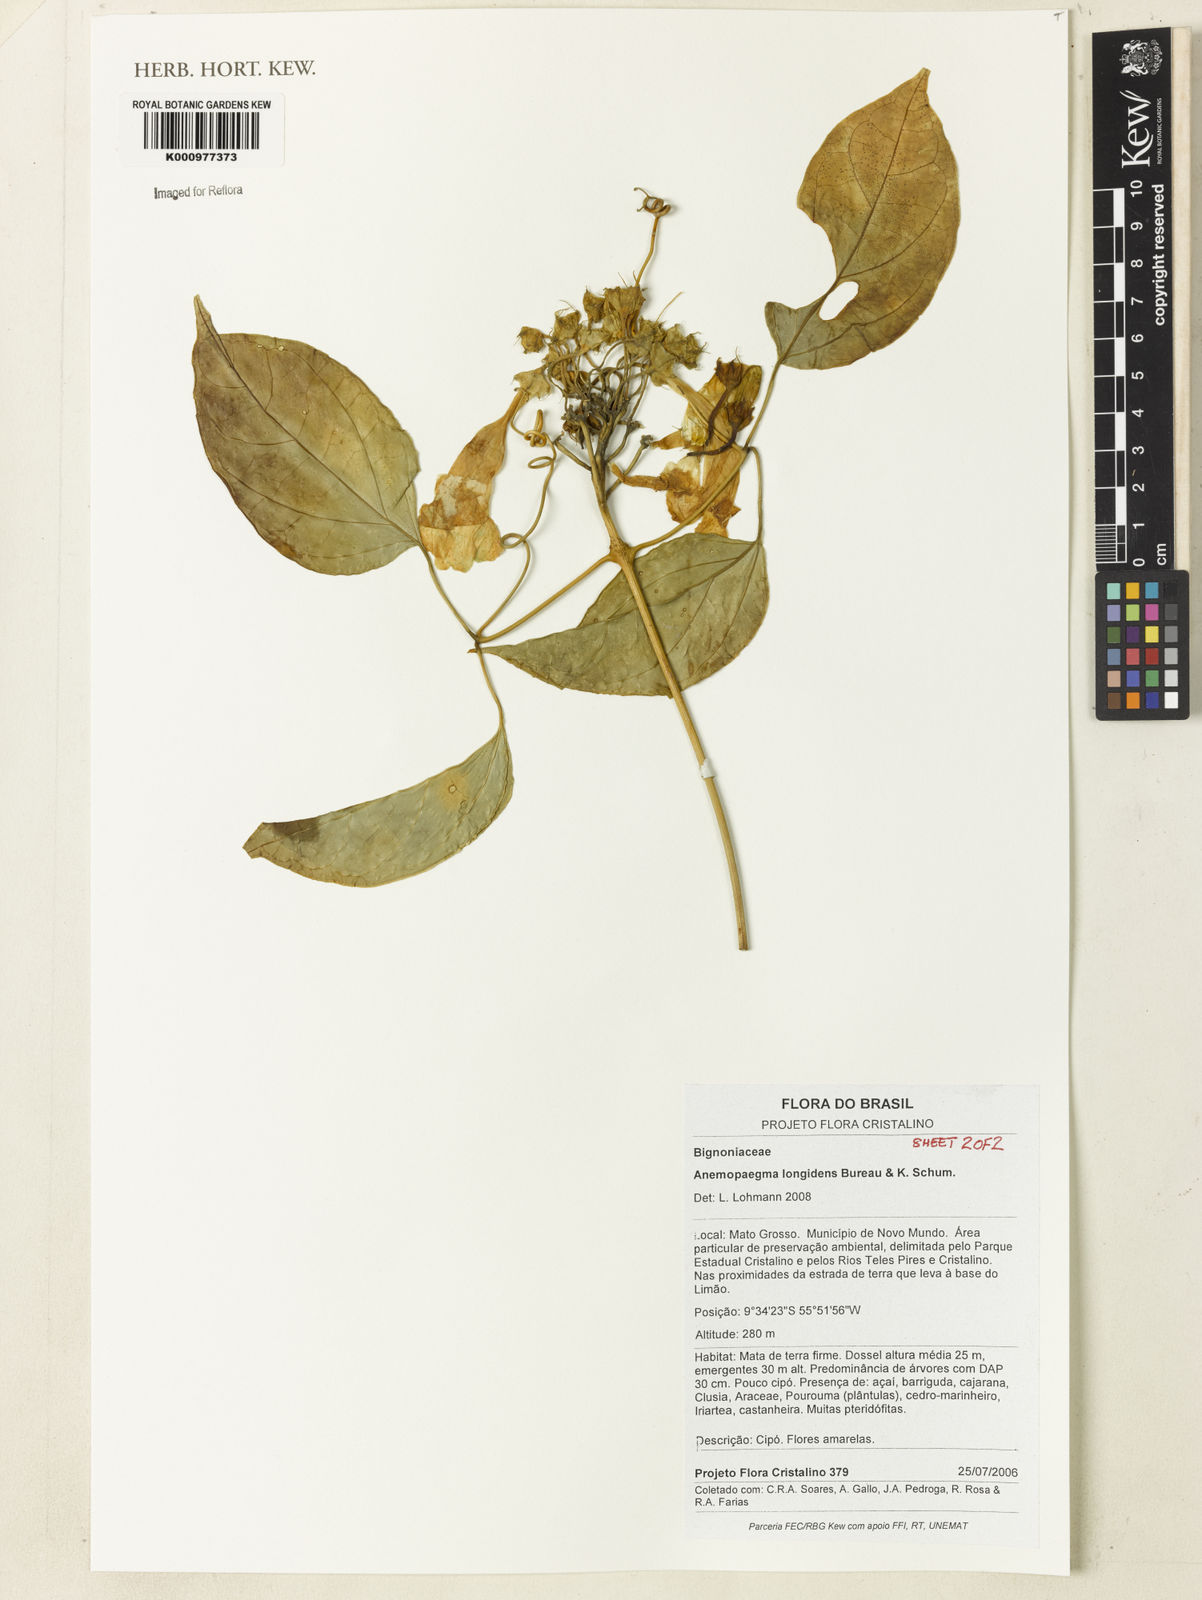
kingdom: Plantae
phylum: Tracheophyta
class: Magnoliopsida
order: Lamiales
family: Bignoniaceae
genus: Anemopaegma
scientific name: Anemopaegma longidens
